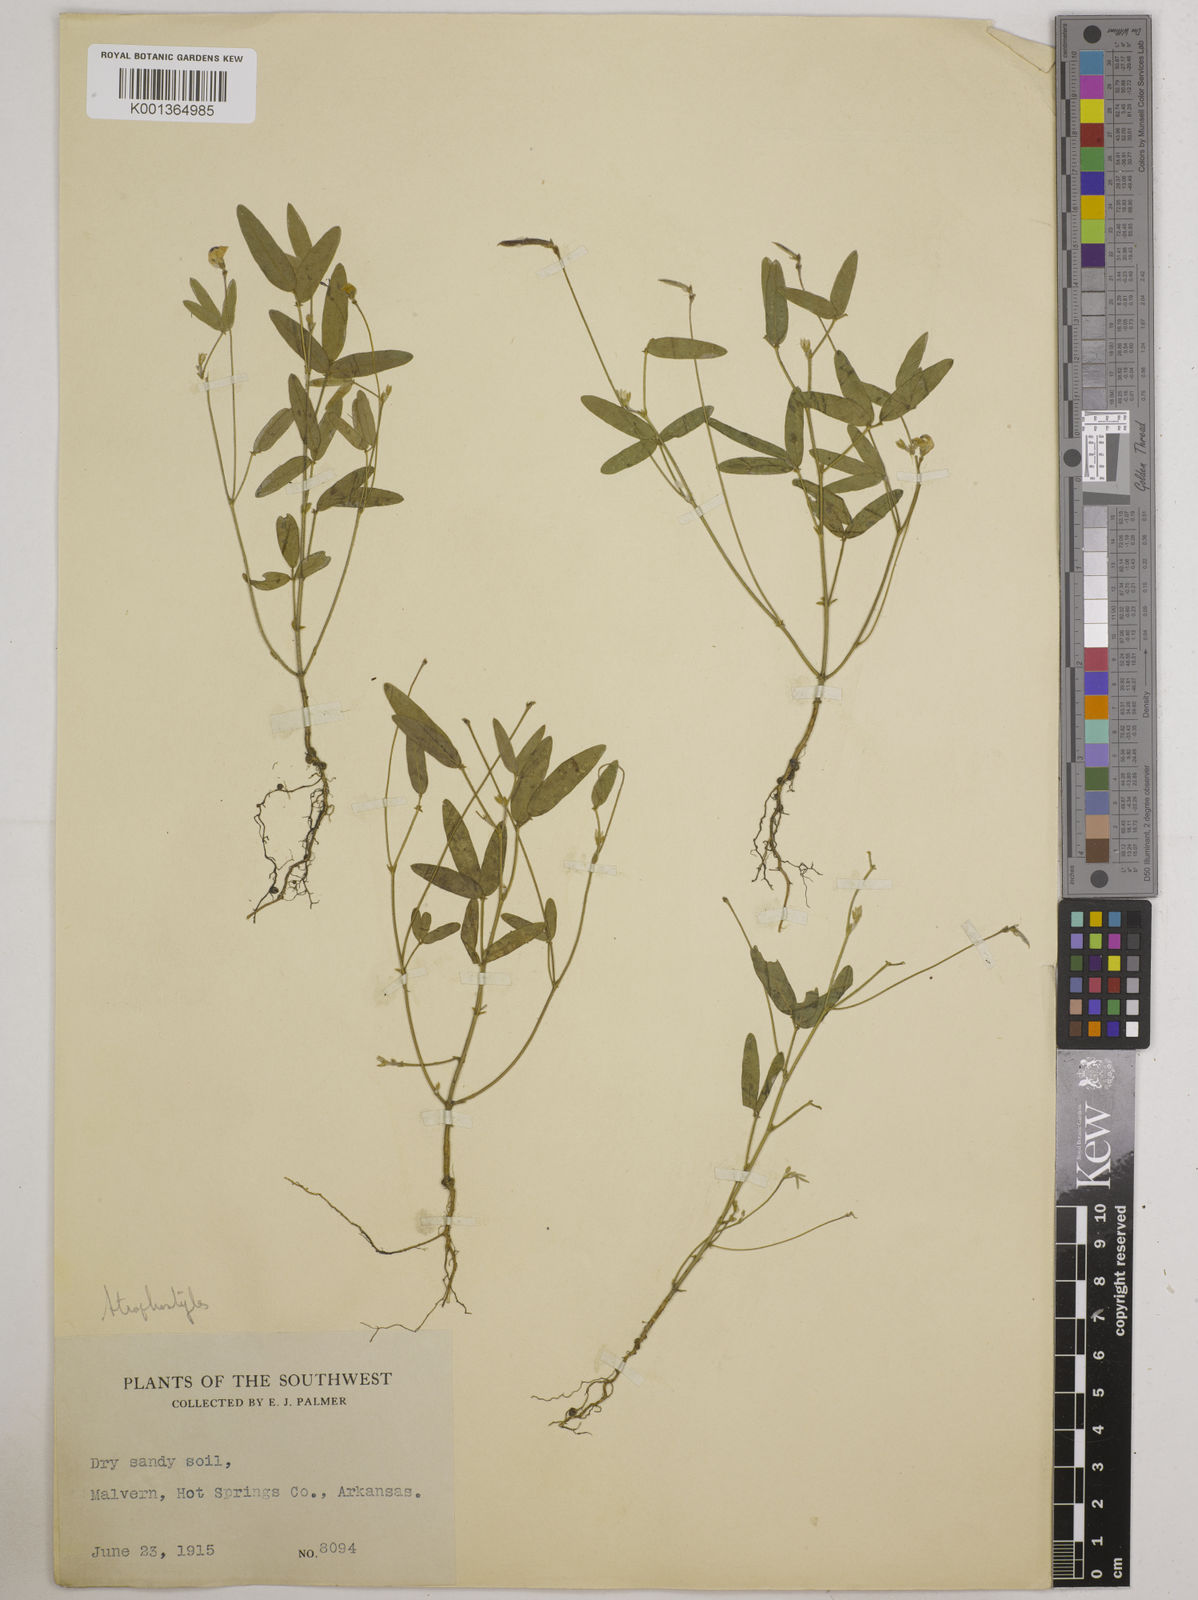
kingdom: Plantae
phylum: Tracheophyta
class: Magnoliopsida
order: Fabales
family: Fabaceae
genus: Strophostyles
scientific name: Strophostyles
